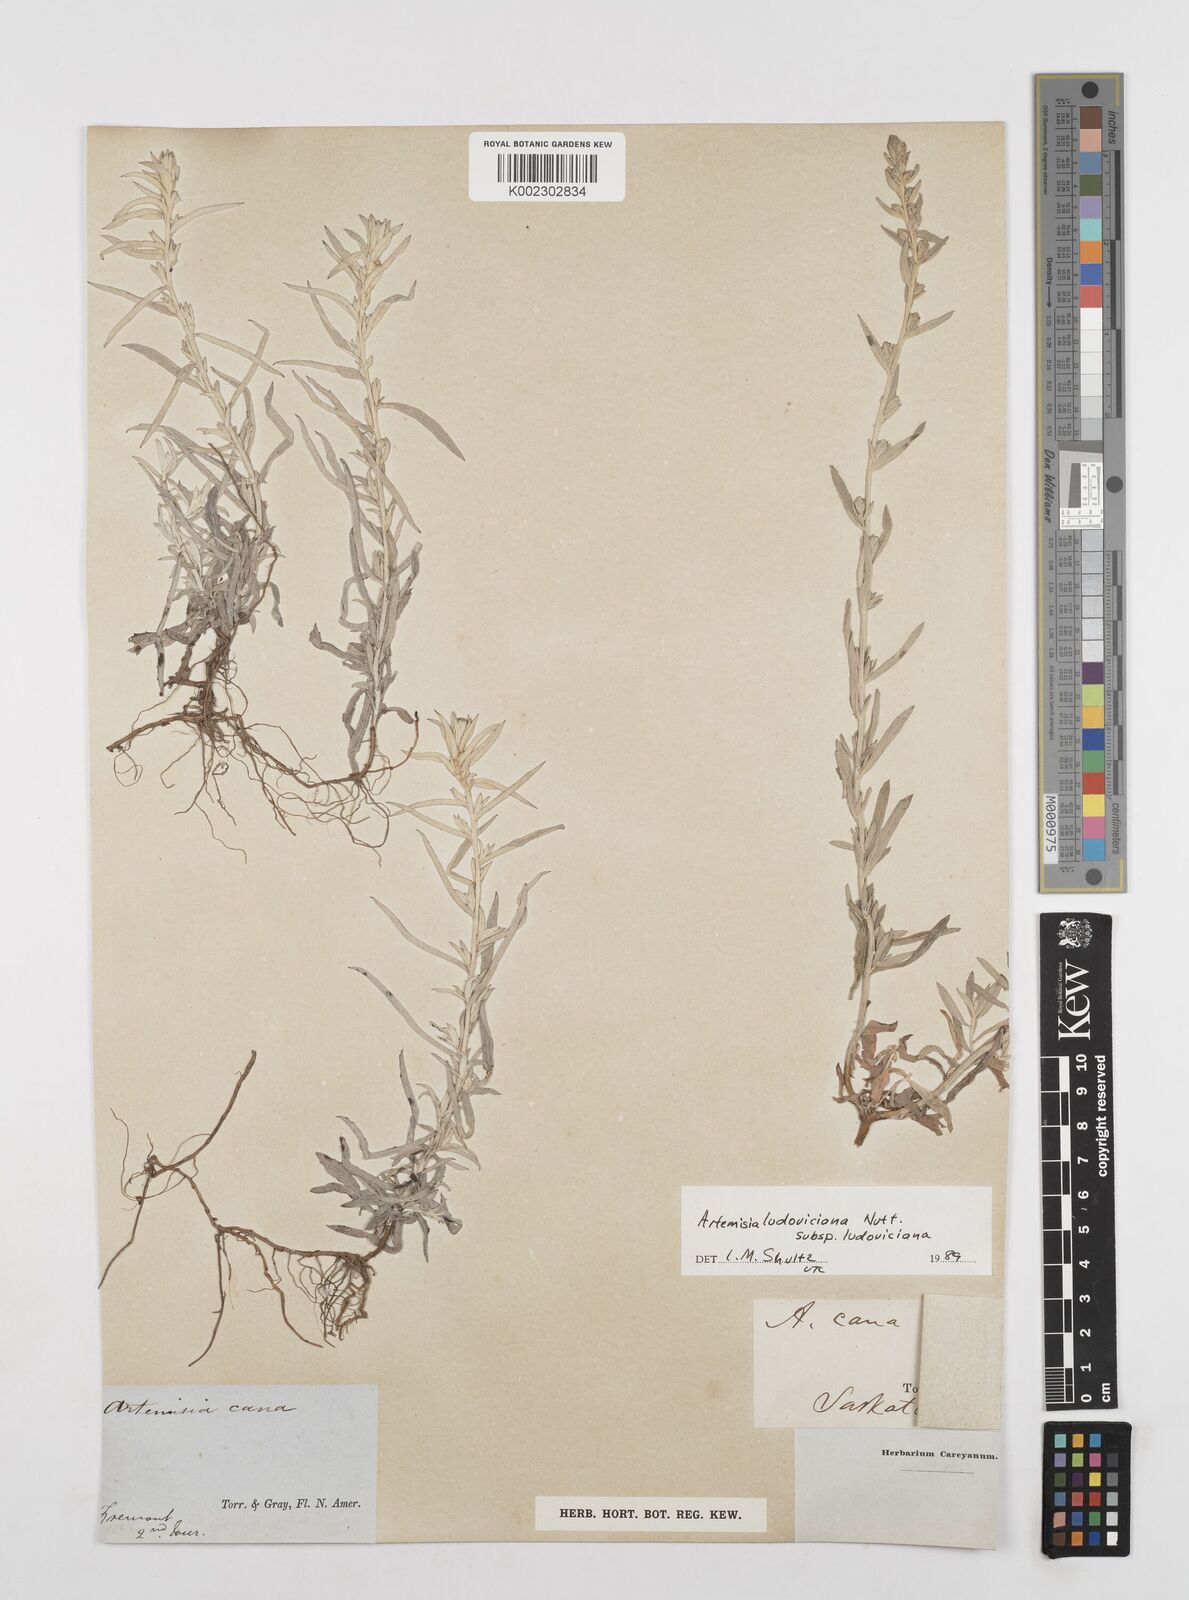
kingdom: Plantae
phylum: Tracheophyta
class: Magnoliopsida
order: Asterales
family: Asteraceae
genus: Artemisia
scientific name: Artemisia ludoviciana
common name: Western mugwort
